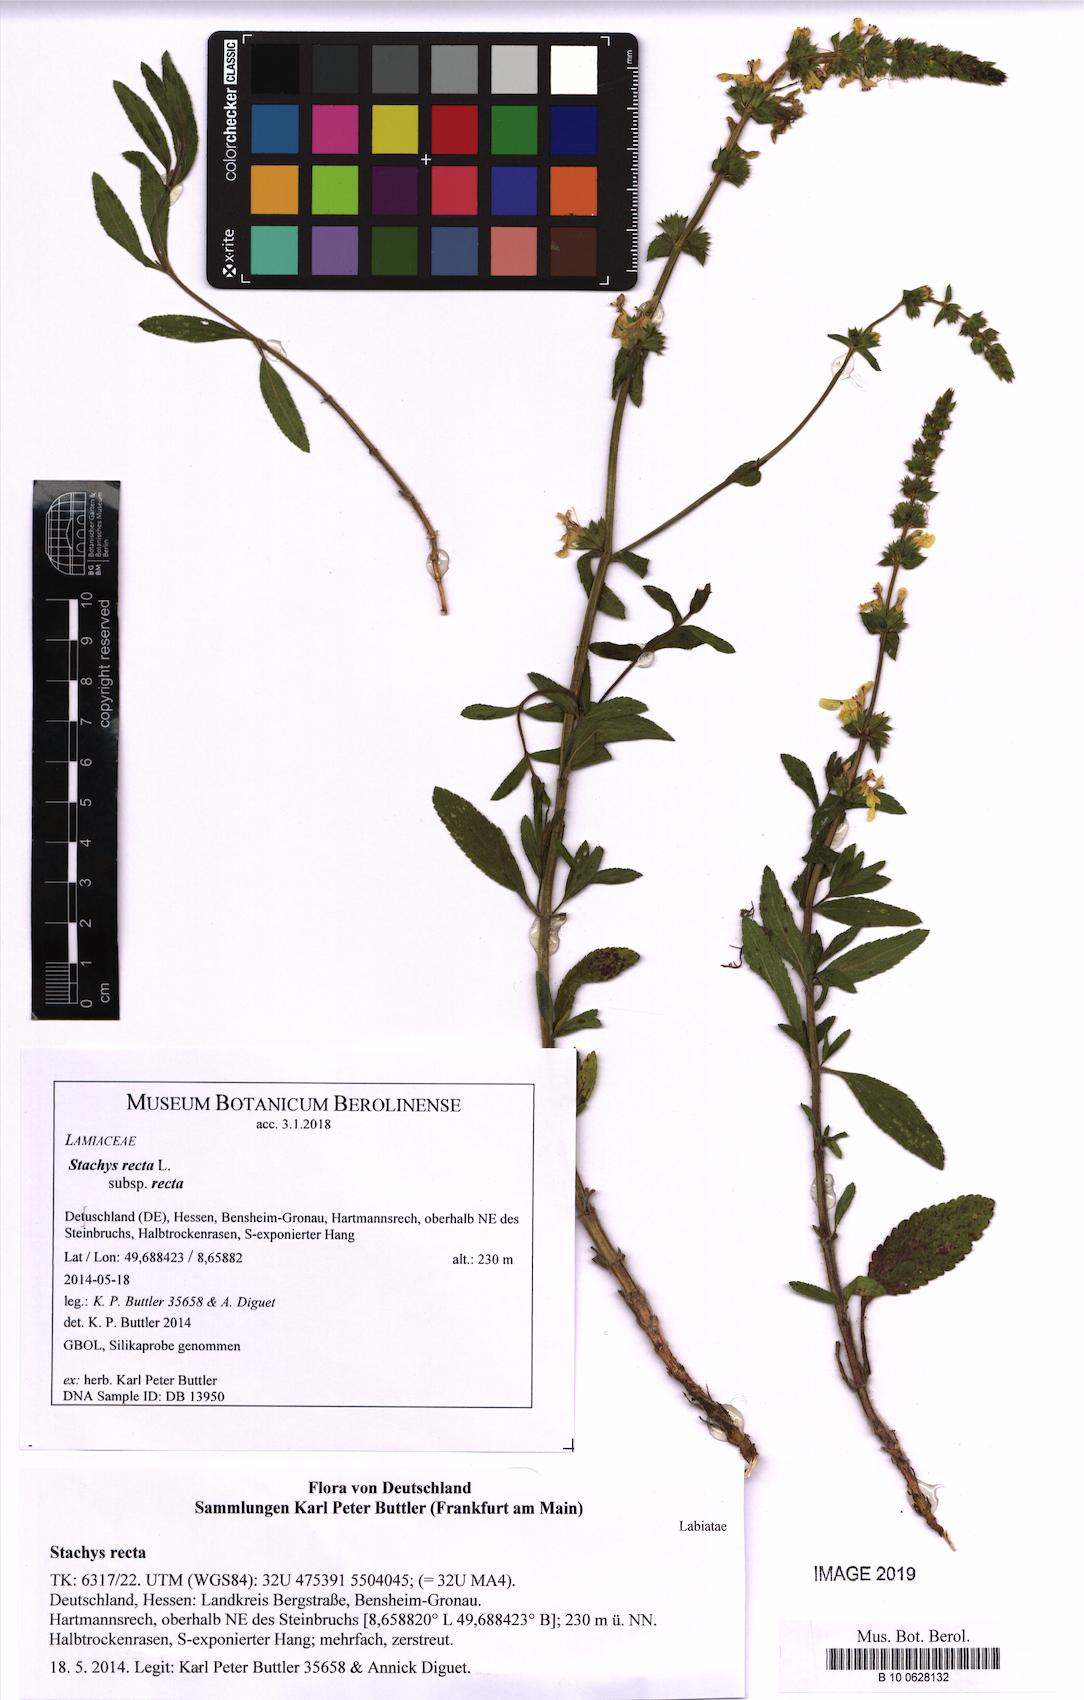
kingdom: Plantae
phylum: Tracheophyta
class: Magnoliopsida
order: Lamiales
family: Lamiaceae
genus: Stachys
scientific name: Stachys recta
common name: Perennial yellow-woundwort
